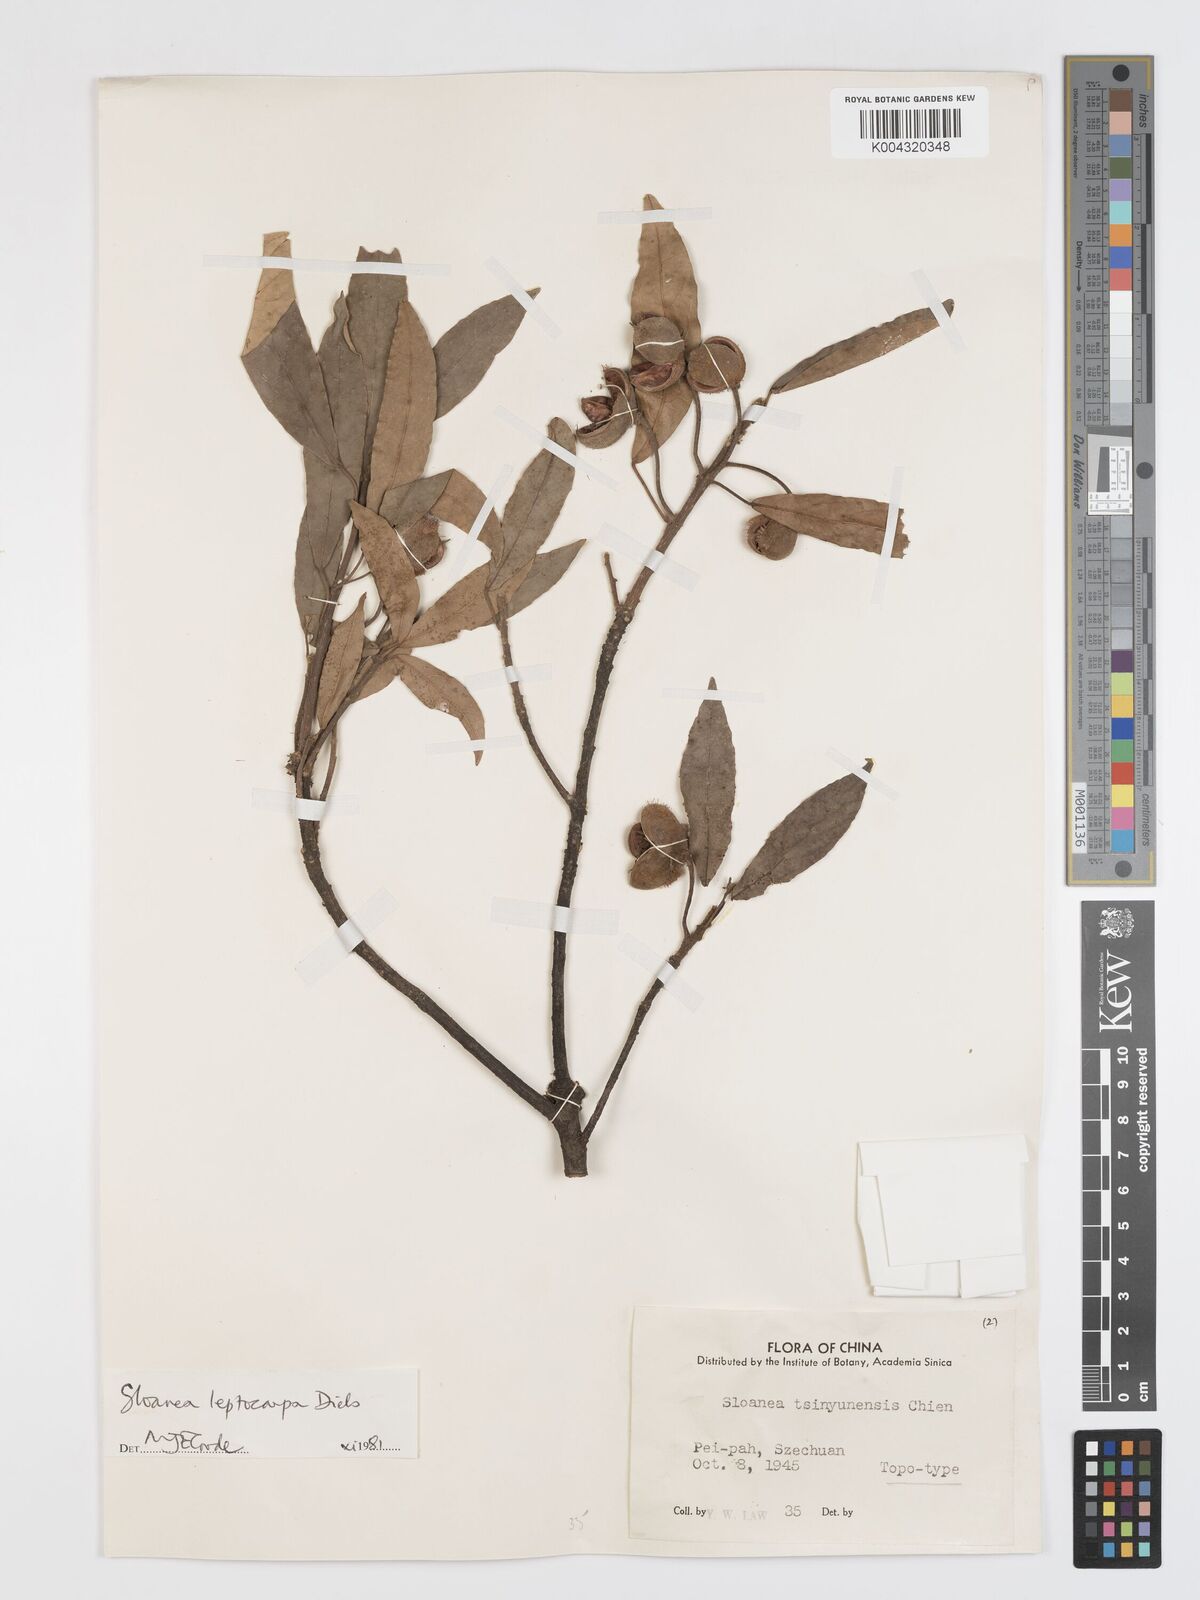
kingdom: Plantae
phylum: Tracheophyta
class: Magnoliopsida
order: Oxalidales
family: Elaeocarpaceae
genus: Sloanea
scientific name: Sloanea leptocarpa
